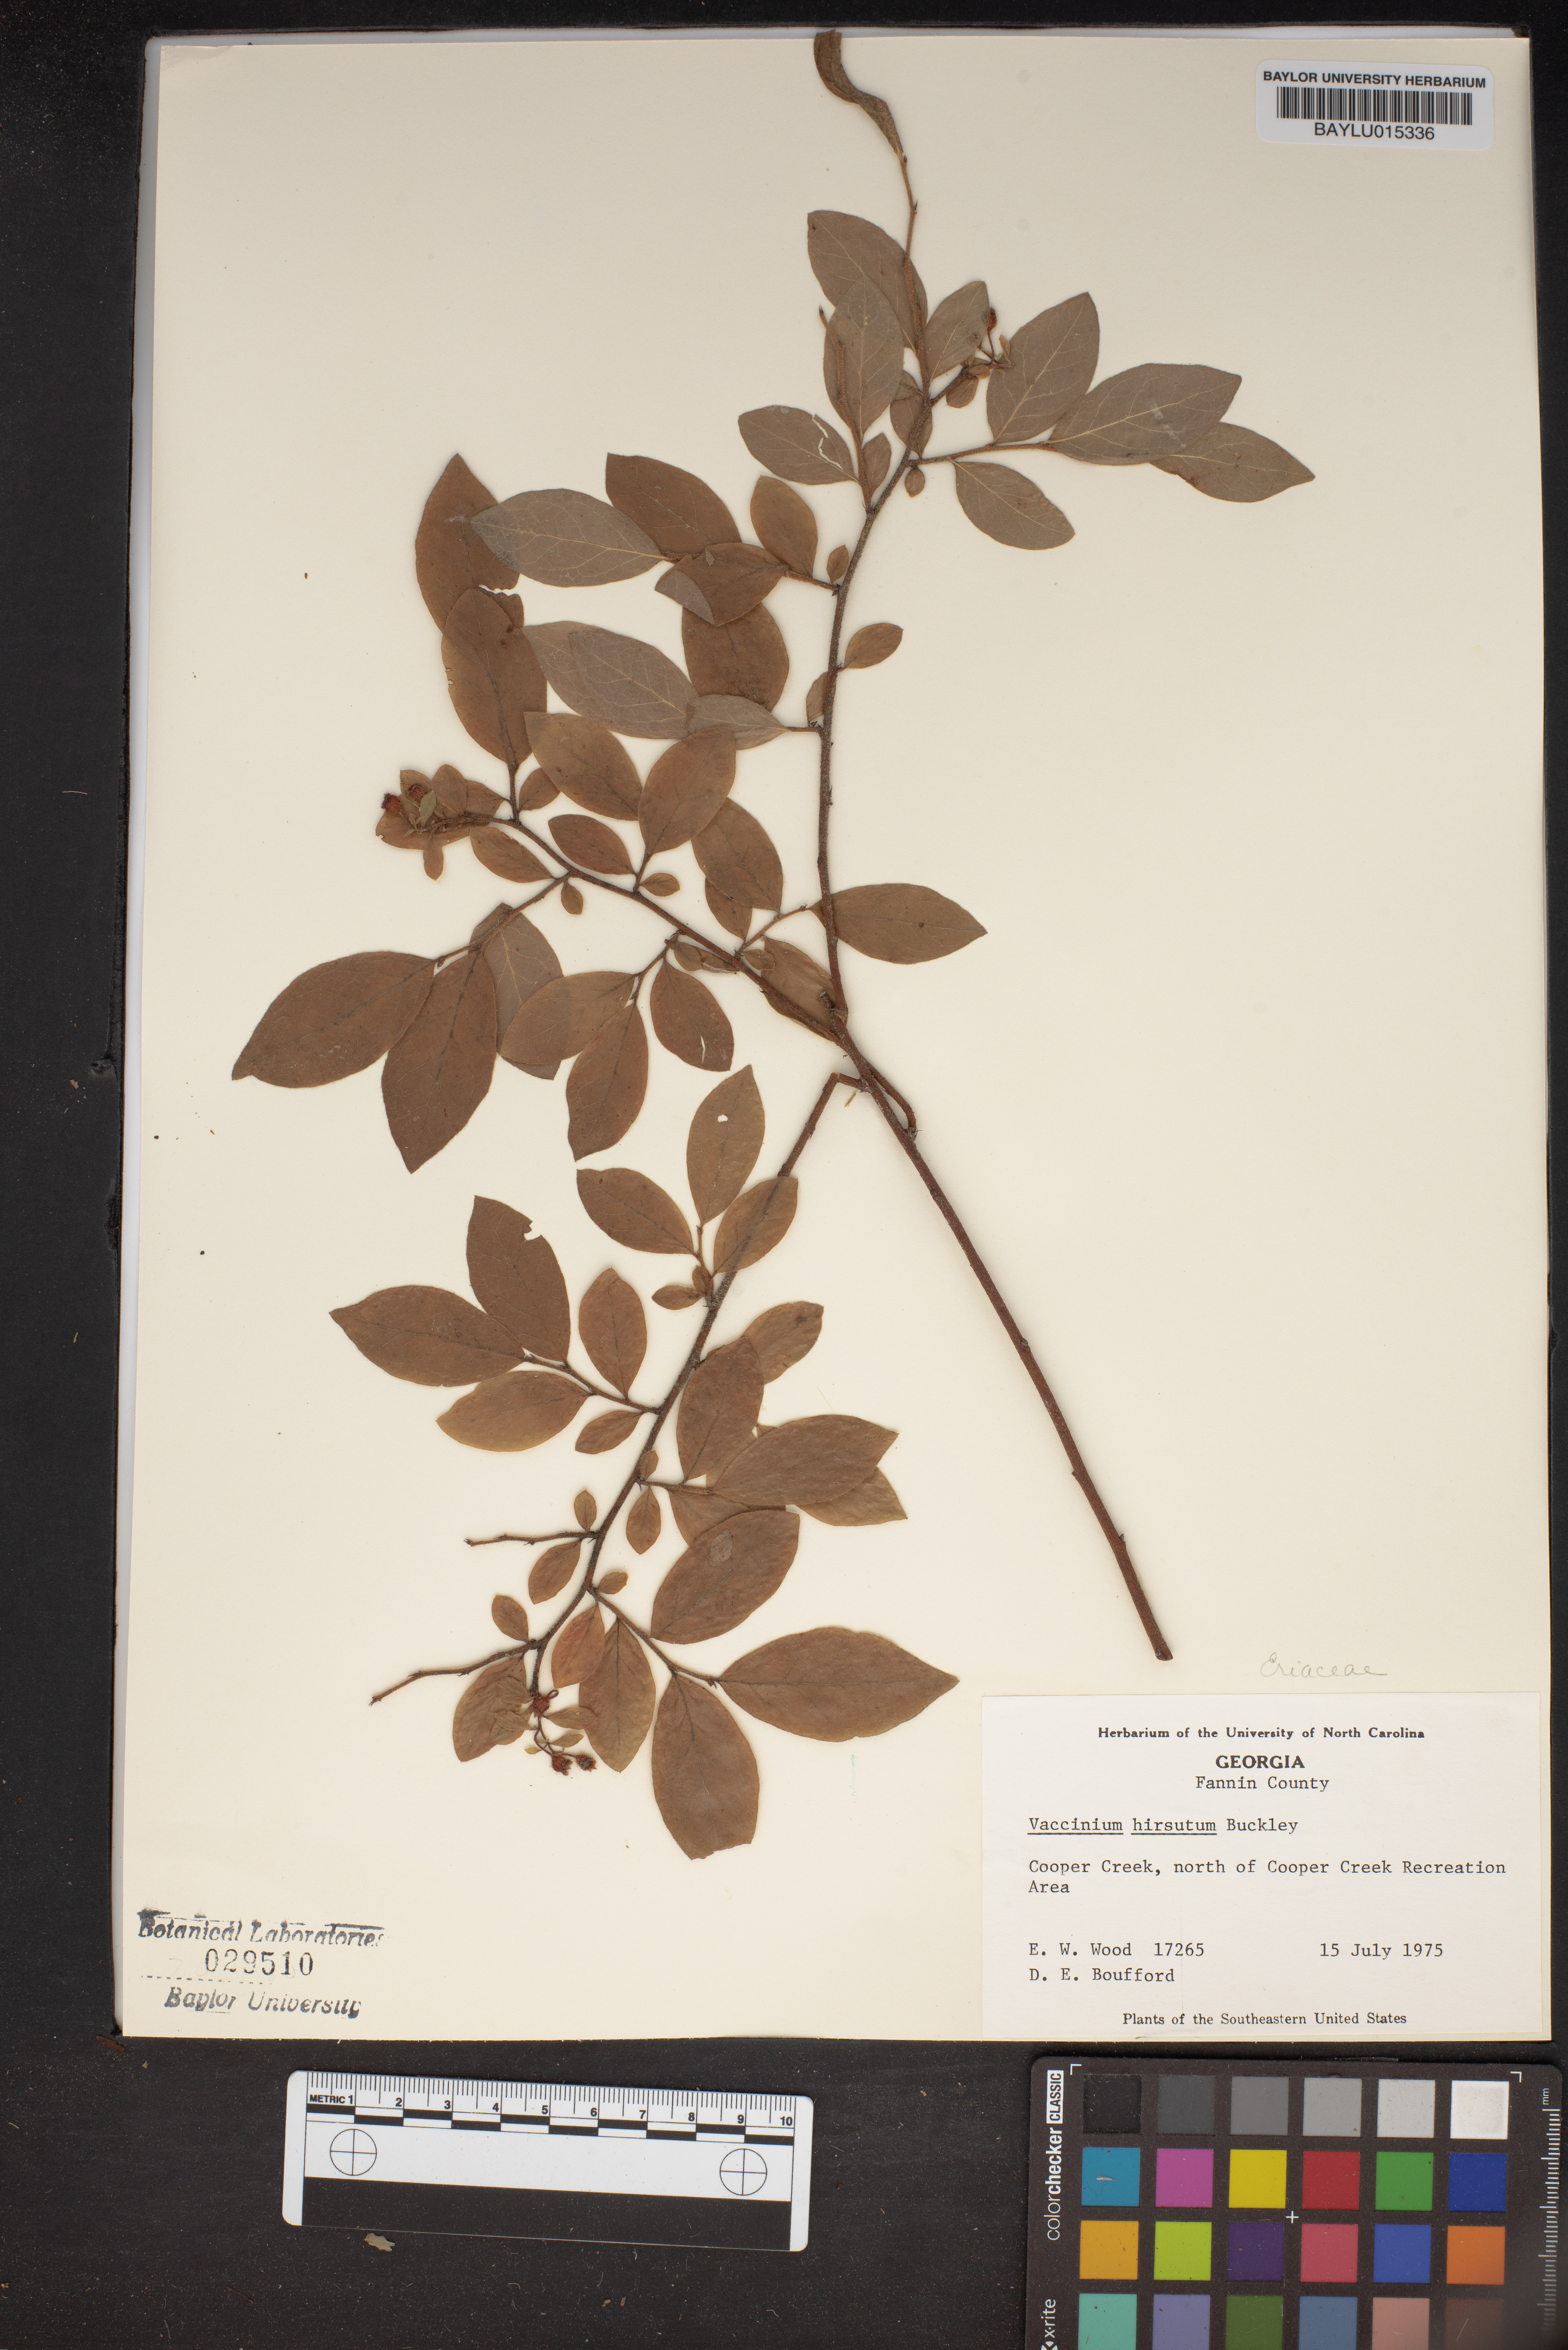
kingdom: Plantae
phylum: Tracheophyta
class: Magnoliopsida
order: Ericales
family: Ericaceae
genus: Vaccinium
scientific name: Vaccinium hirsutum
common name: Woolly-berry
